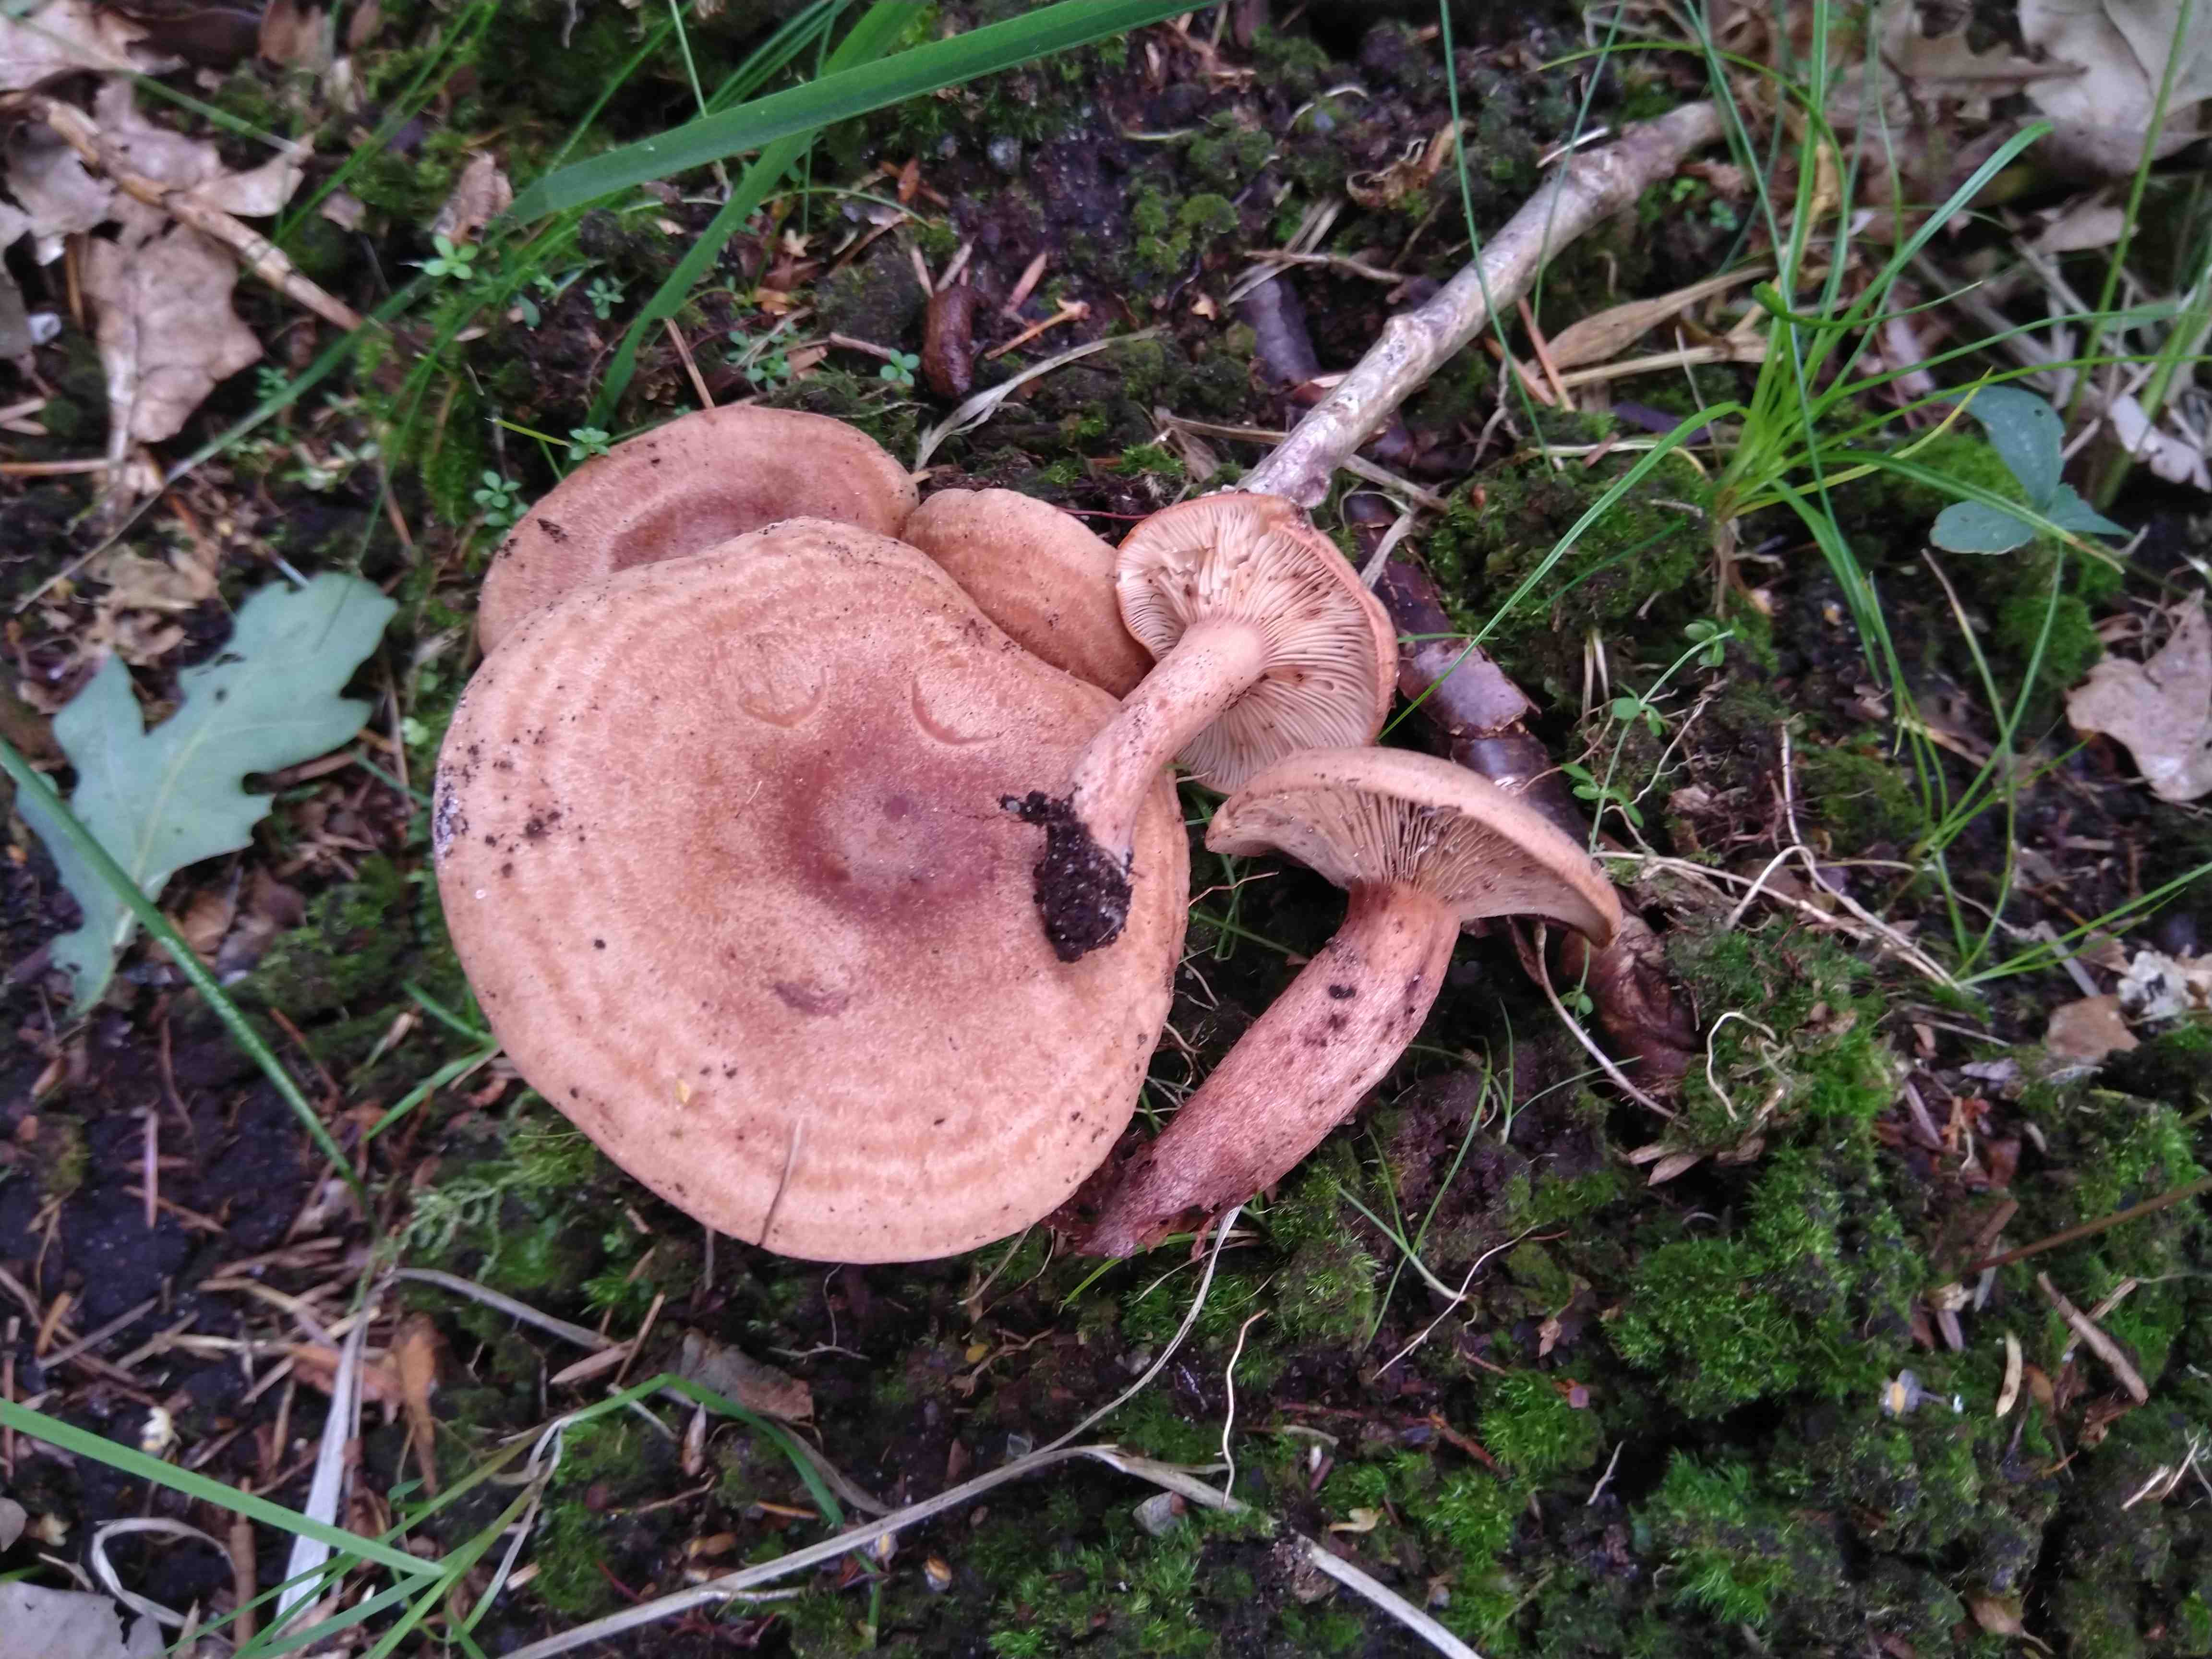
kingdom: Fungi
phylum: Basidiomycota
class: Agaricomycetes
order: Russulales
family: Russulaceae
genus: Lactarius
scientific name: Lactarius quietus
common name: ege-mælkehat
